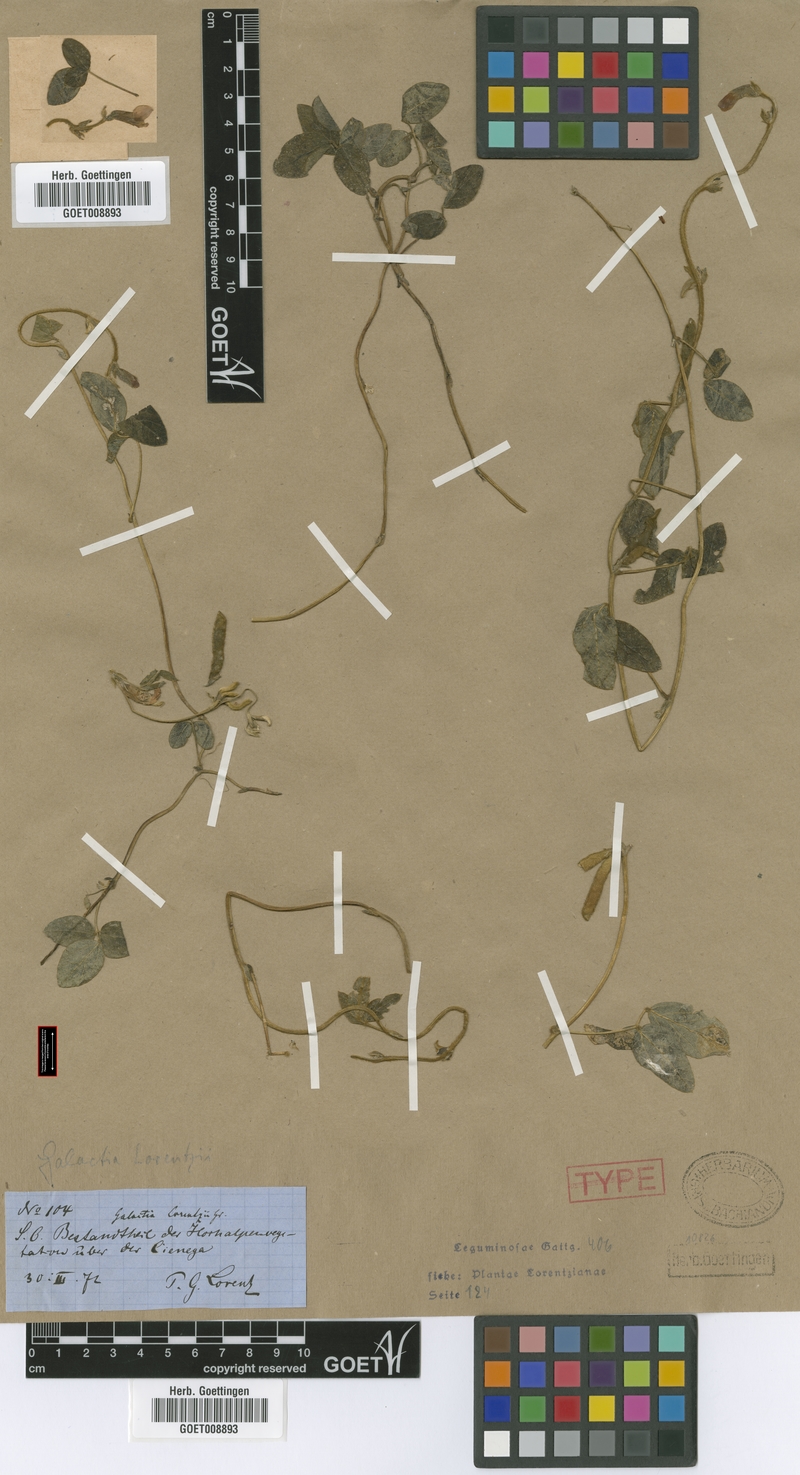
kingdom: Plantae
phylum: Tracheophyta
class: Magnoliopsida
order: Fabales
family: Fabaceae
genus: Cologania
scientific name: Cologania broussonetii
